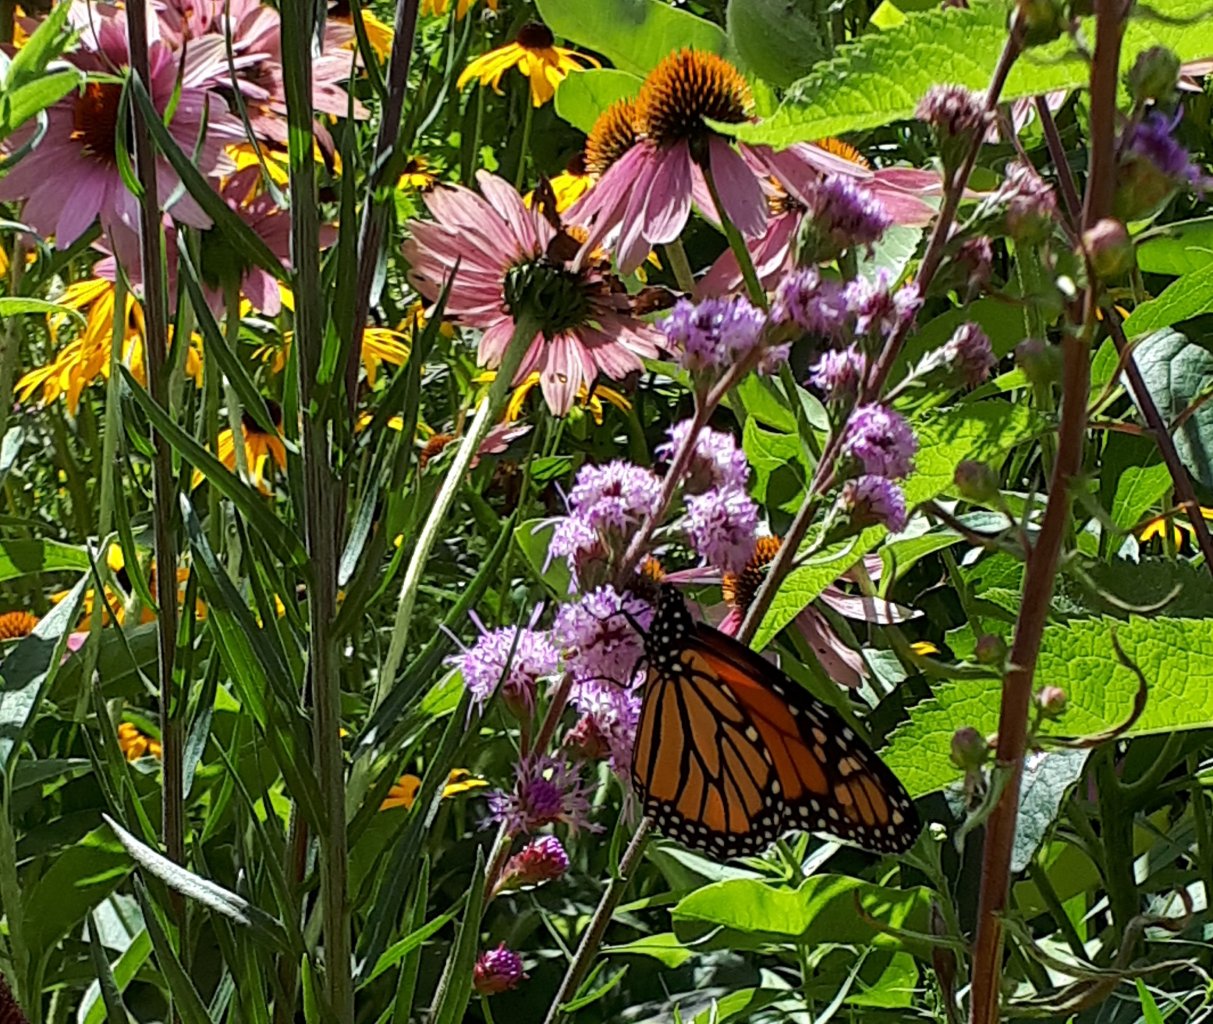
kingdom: Animalia
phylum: Arthropoda
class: Insecta
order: Lepidoptera
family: Nymphalidae
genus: Danaus
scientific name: Danaus plexippus
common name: Monarch
